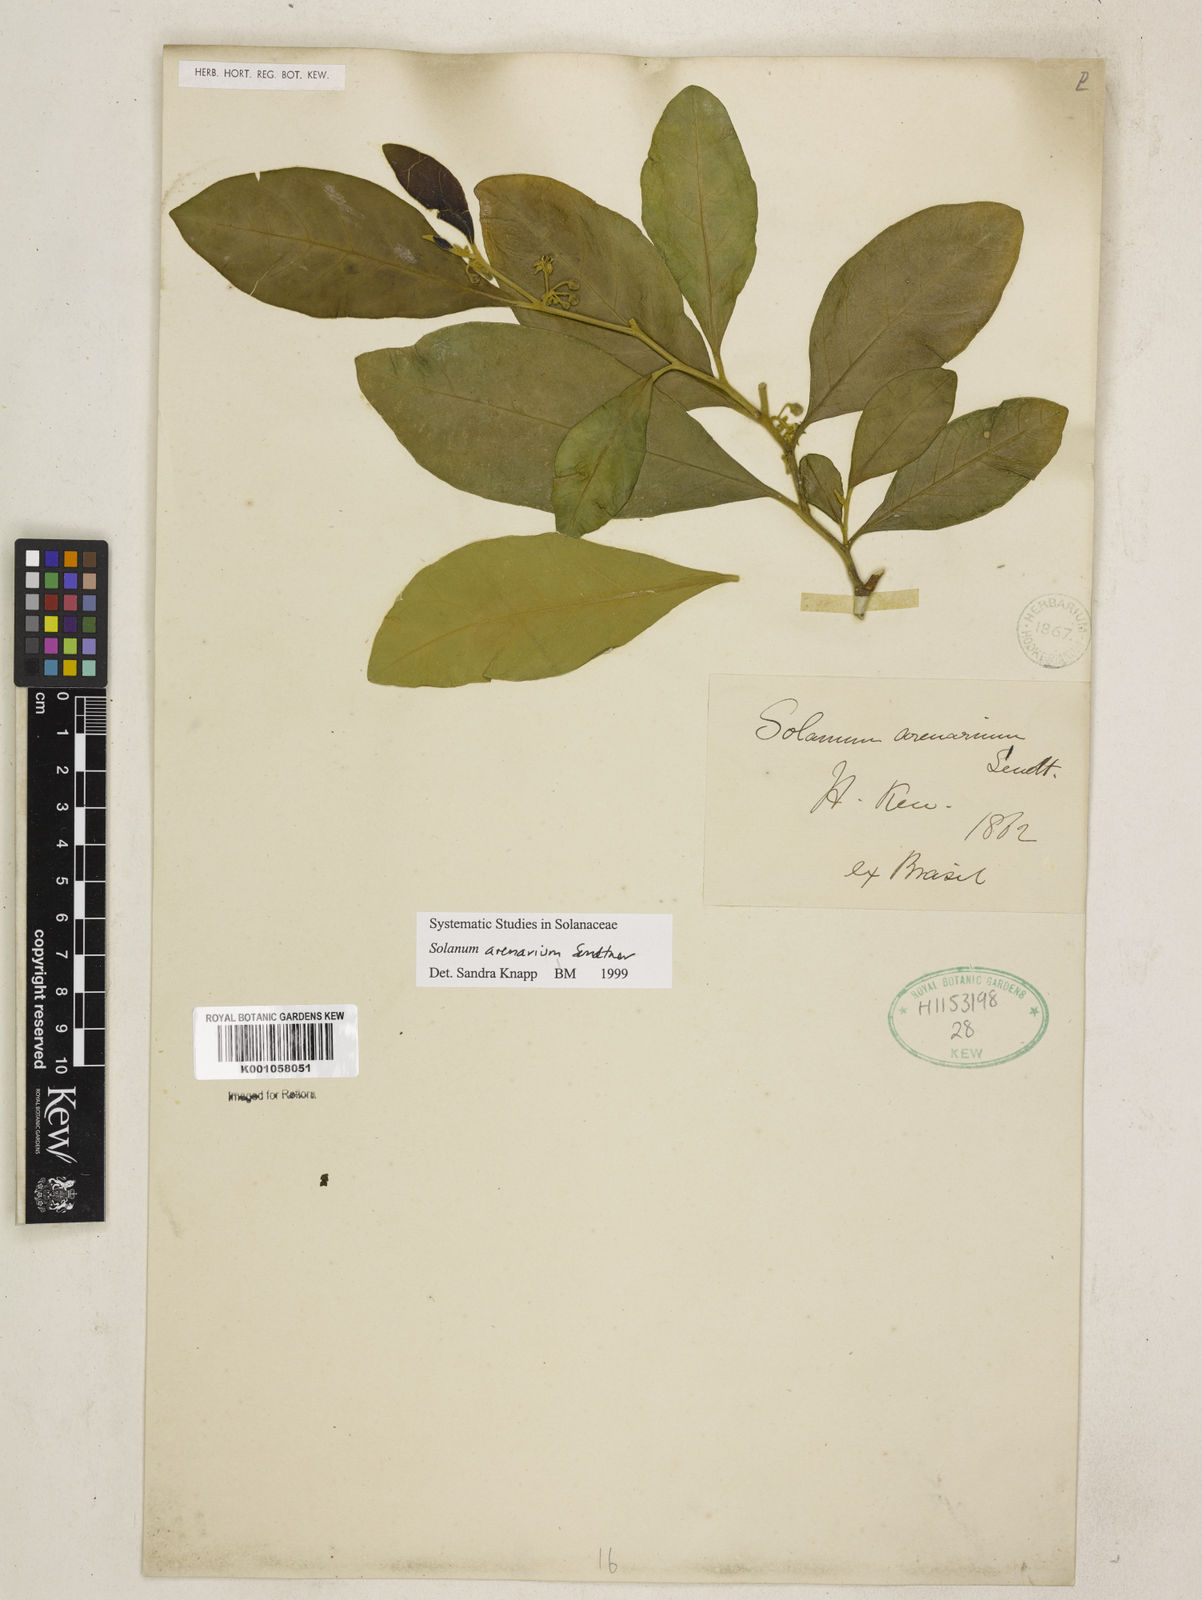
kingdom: Plantae
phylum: Tracheophyta
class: Magnoliopsida
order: Solanales
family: Solanaceae
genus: Solanum
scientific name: Solanum arenarium
